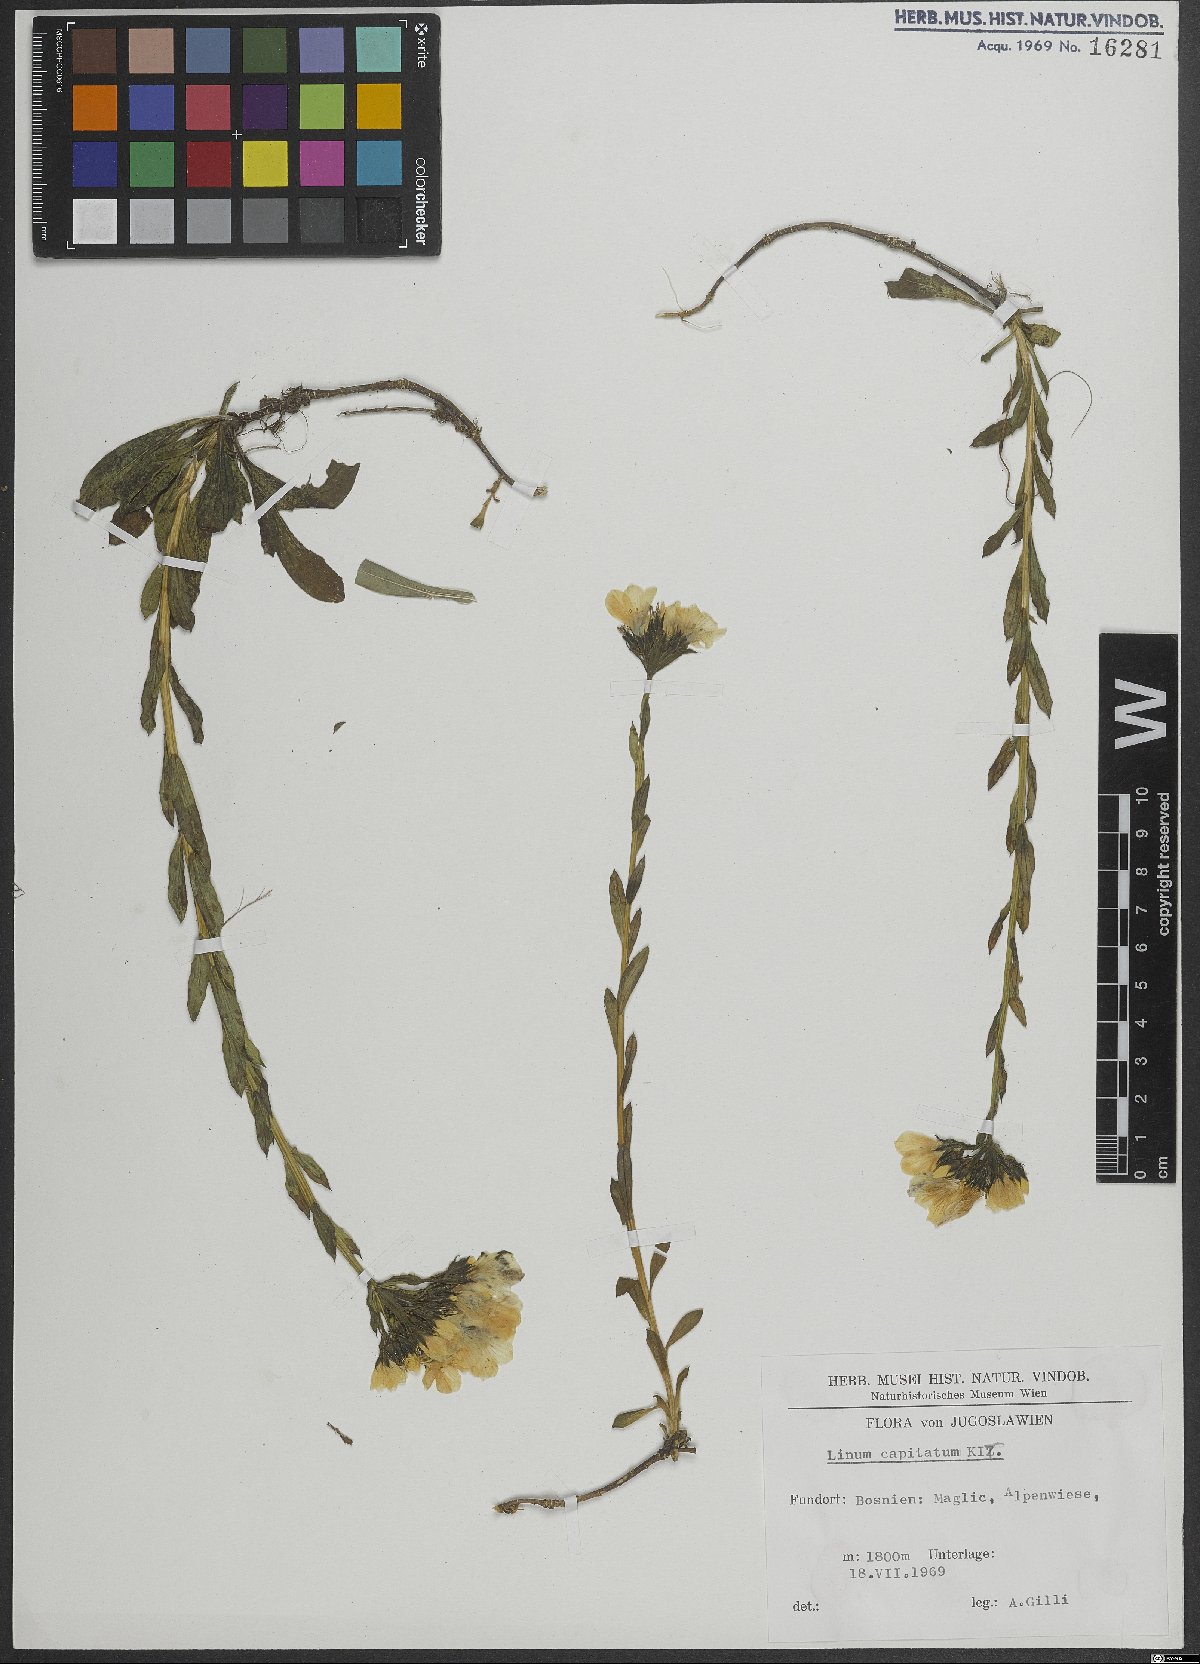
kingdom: Plantae
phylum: Tracheophyta
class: Magnoliopsida
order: Malpighiales
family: Linaceae
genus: Linum
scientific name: Linum capitatum
